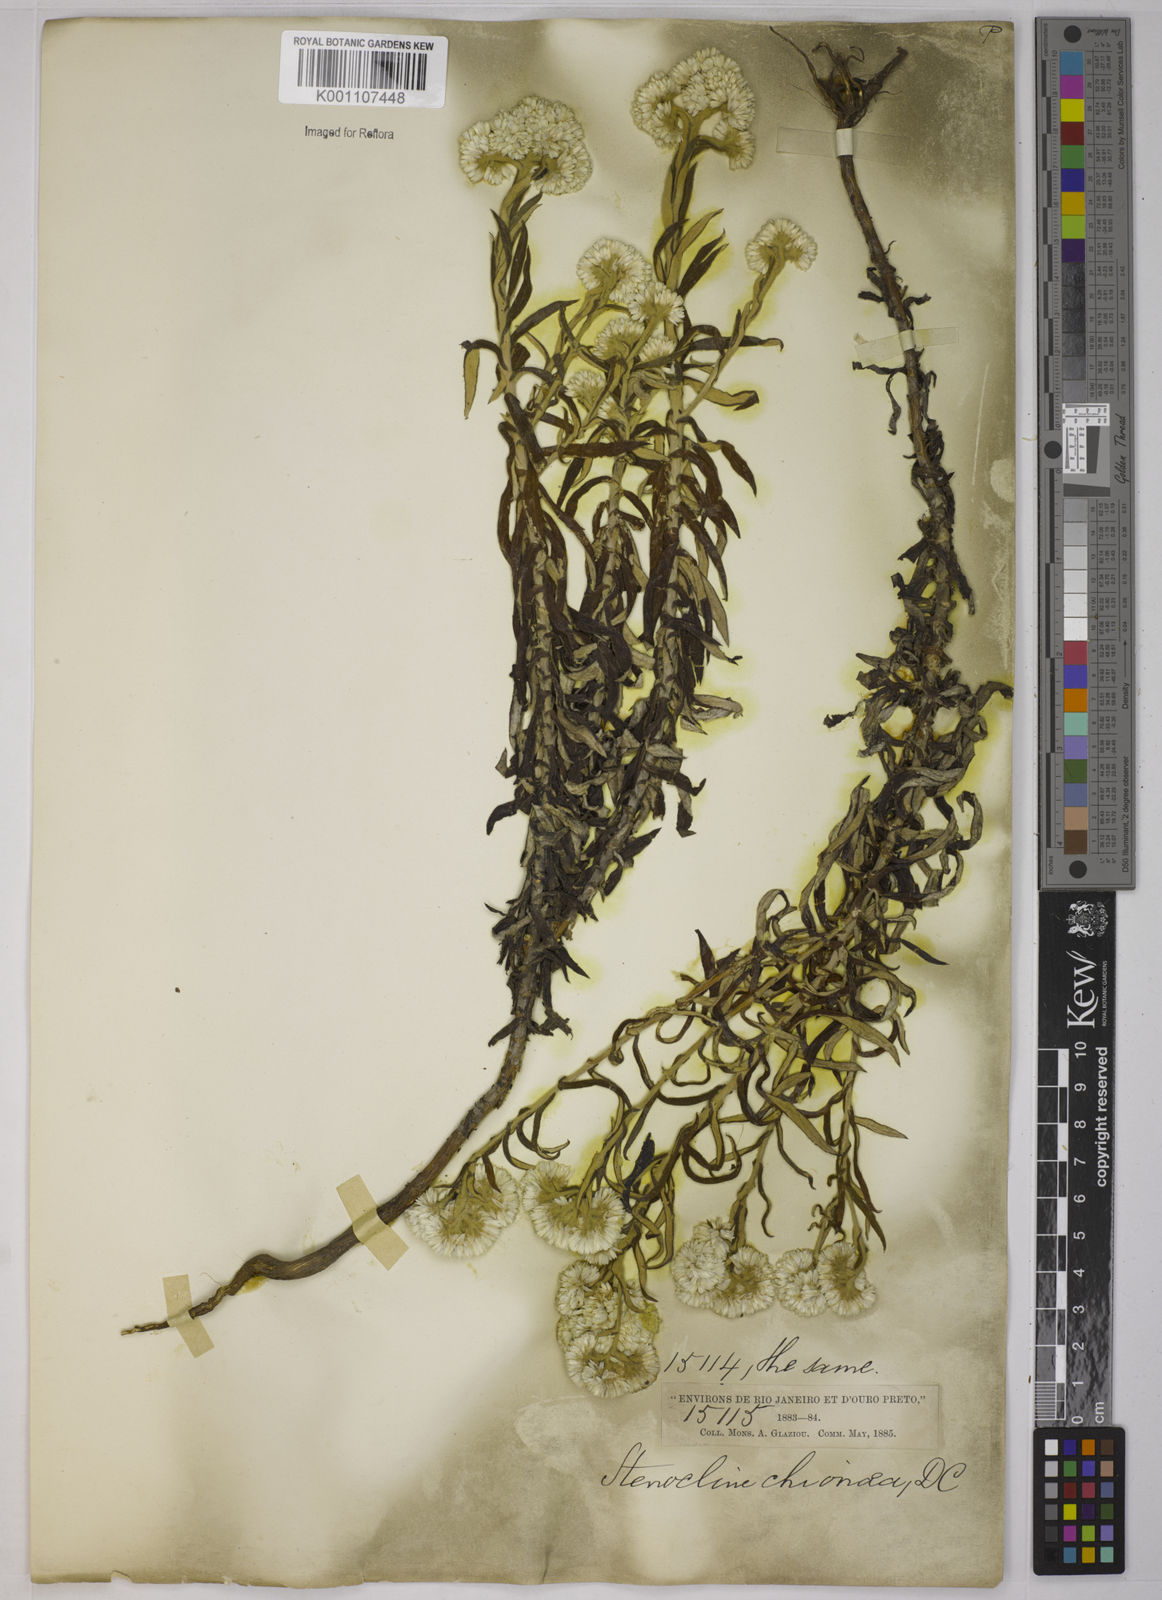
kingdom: Plantae
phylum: Tracheophyta
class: Magnoliopsida
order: Asterales
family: Asteraceae
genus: Achyrocline
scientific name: Achyrocline chionaea
